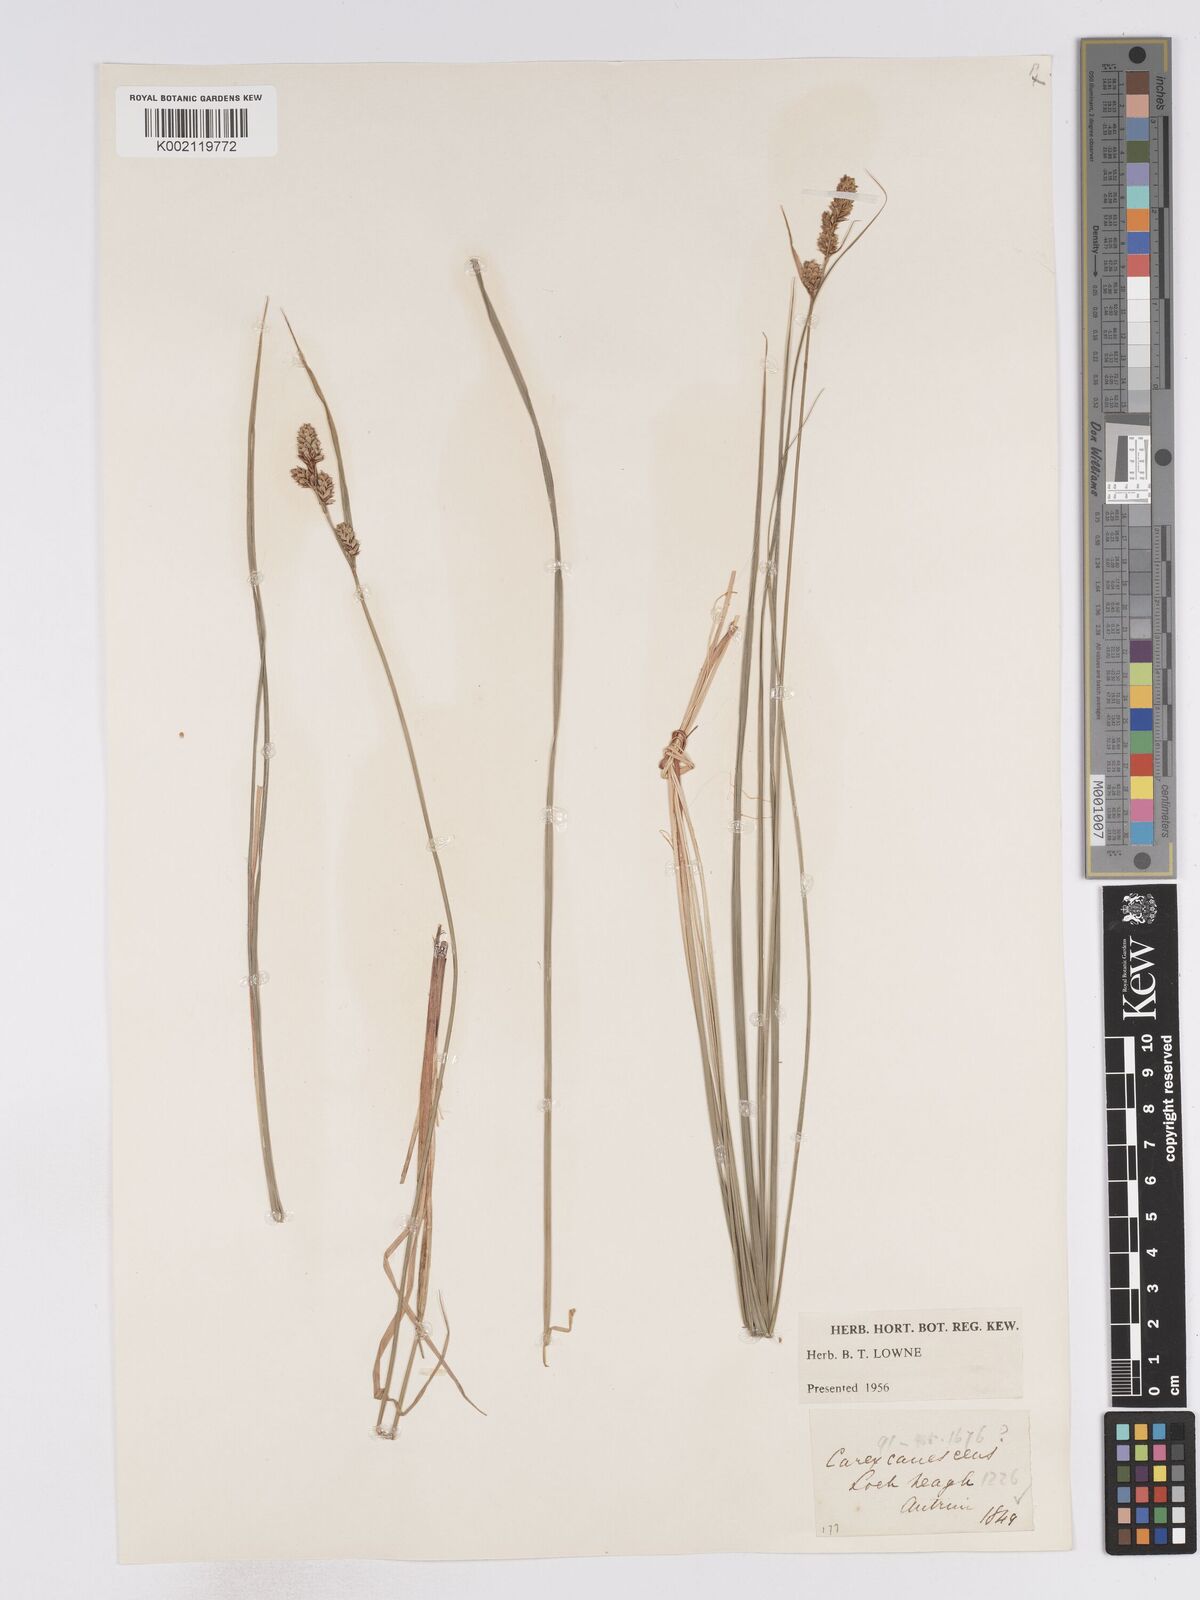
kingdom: Plantae
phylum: Tracheophyta
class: Liliopsida
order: Poales
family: Cyperaceae
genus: Carex
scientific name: Carex curta
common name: White sedge
